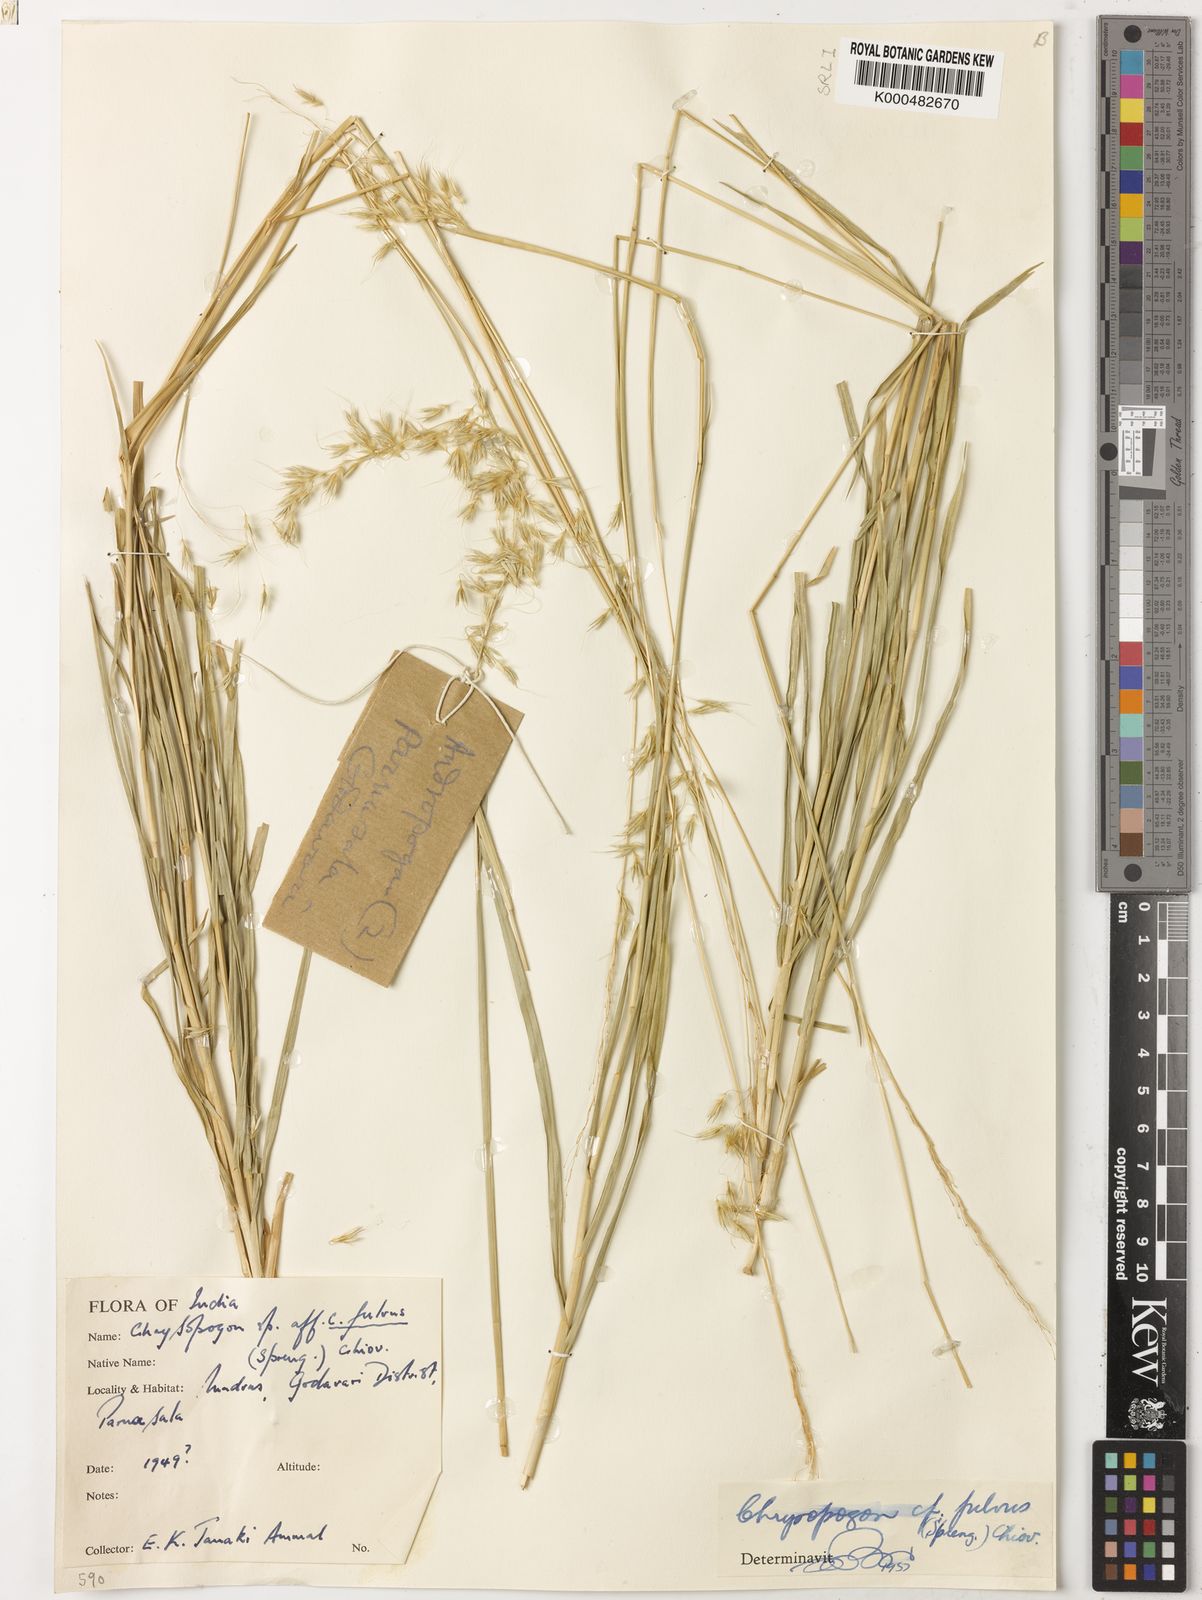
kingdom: Plantae
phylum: Tracheophyta
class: Liliopsida
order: Poales
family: Poaceae
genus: Chrysopogon
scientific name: Chrysopogon polyphyllus
